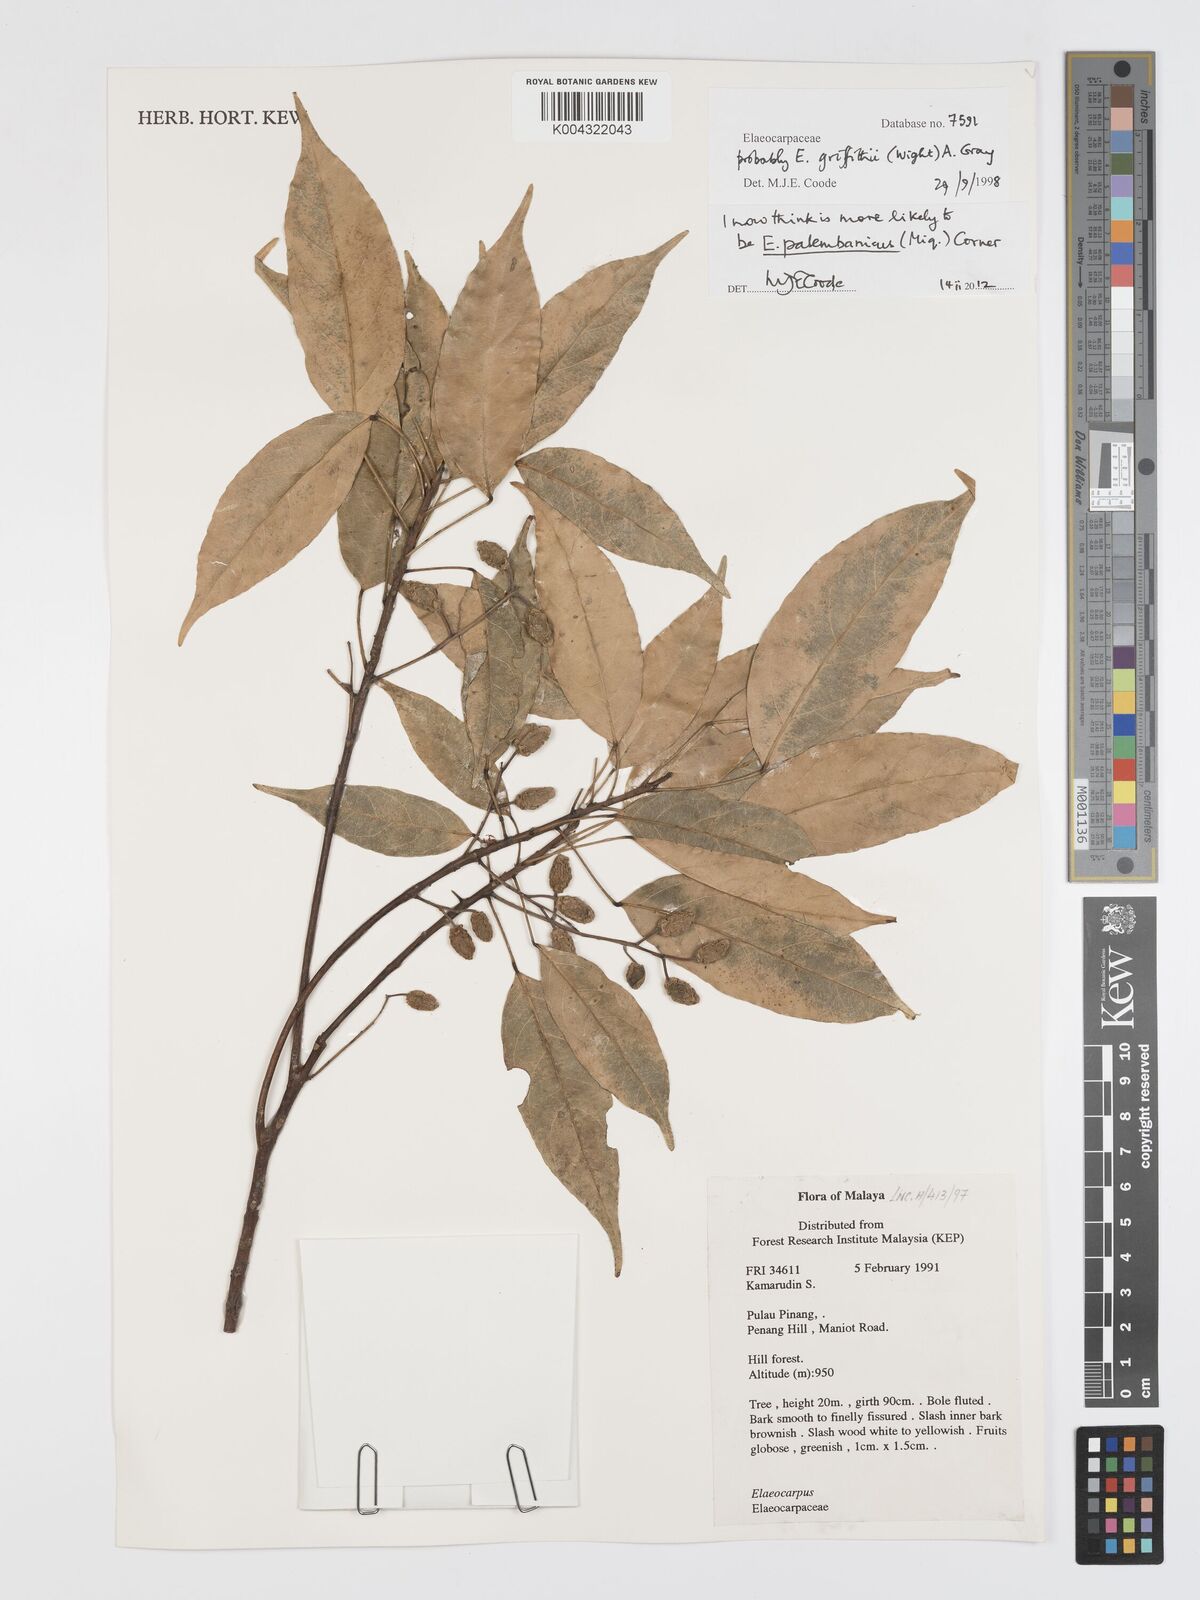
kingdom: Plantae
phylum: Tracheophyta
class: Magnoliopsida
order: Oxalidales
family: Elaeocarpaceae
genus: Elaeocarpus
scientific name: Elaeocarpus palembanicus
